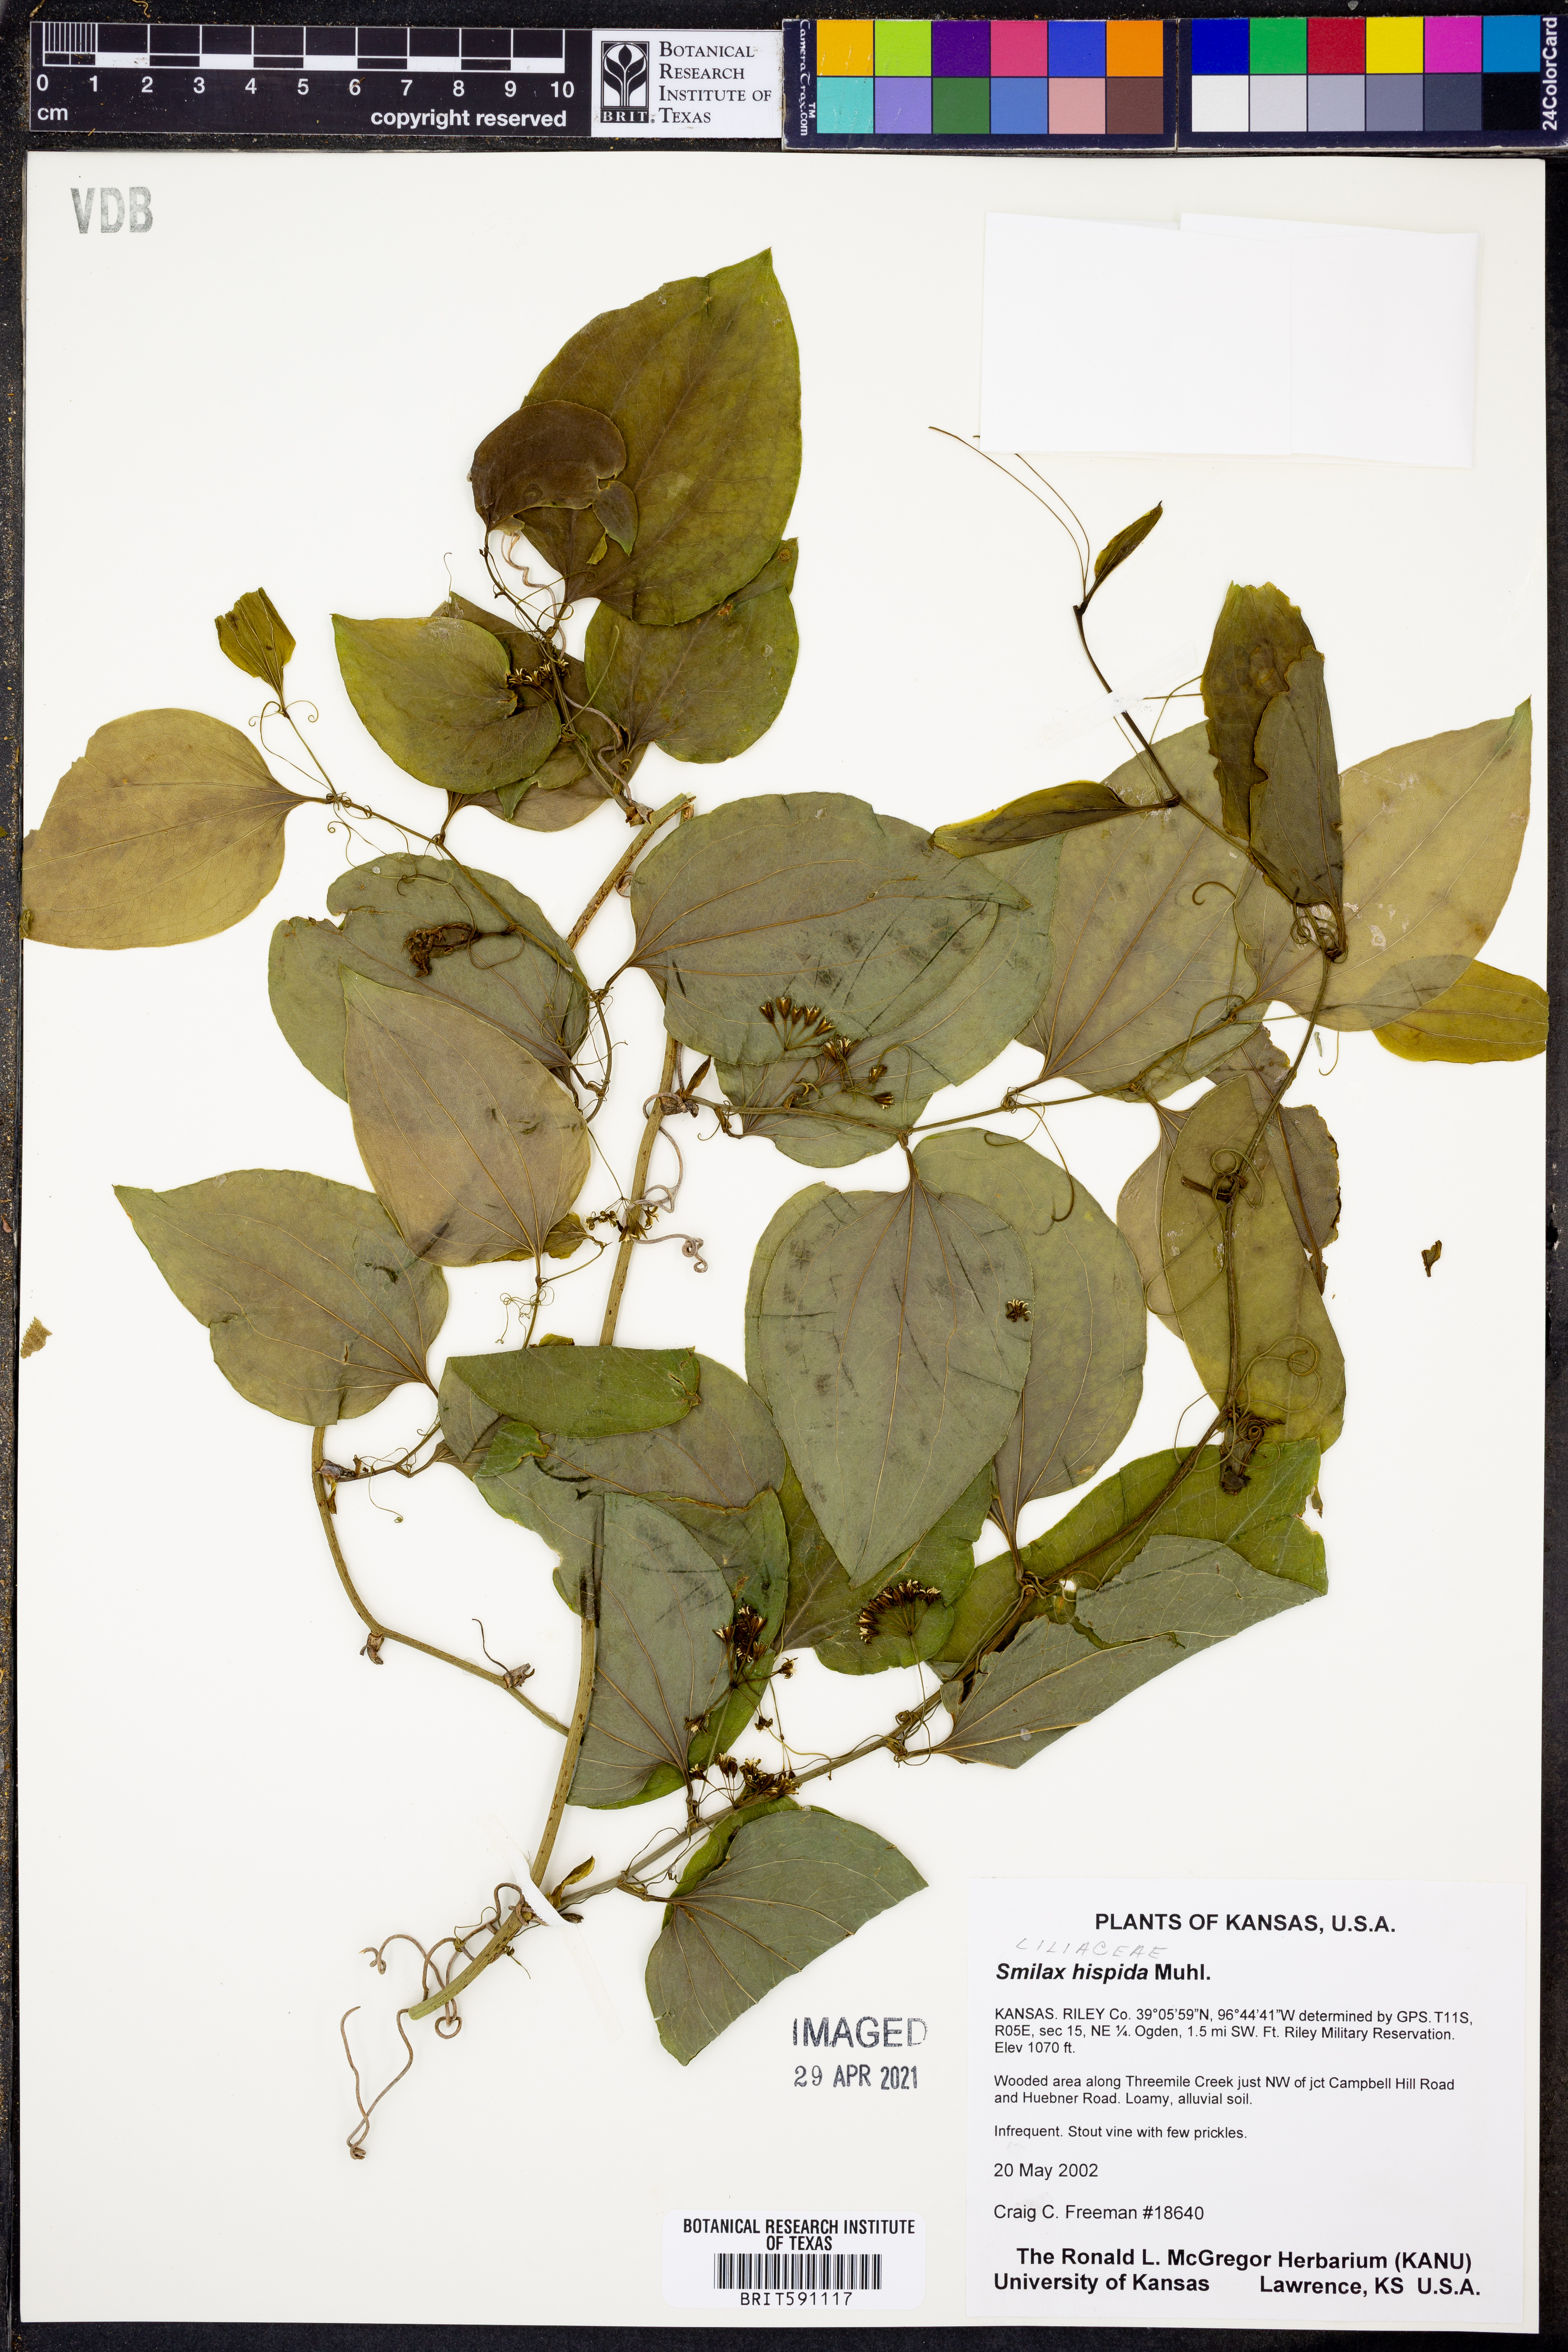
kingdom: Plantae
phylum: Tracheophyta
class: Liliopsida
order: Liliales
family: Smilacaceae
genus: Smilax
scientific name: Smilax tamnoides
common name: Hellfetter
